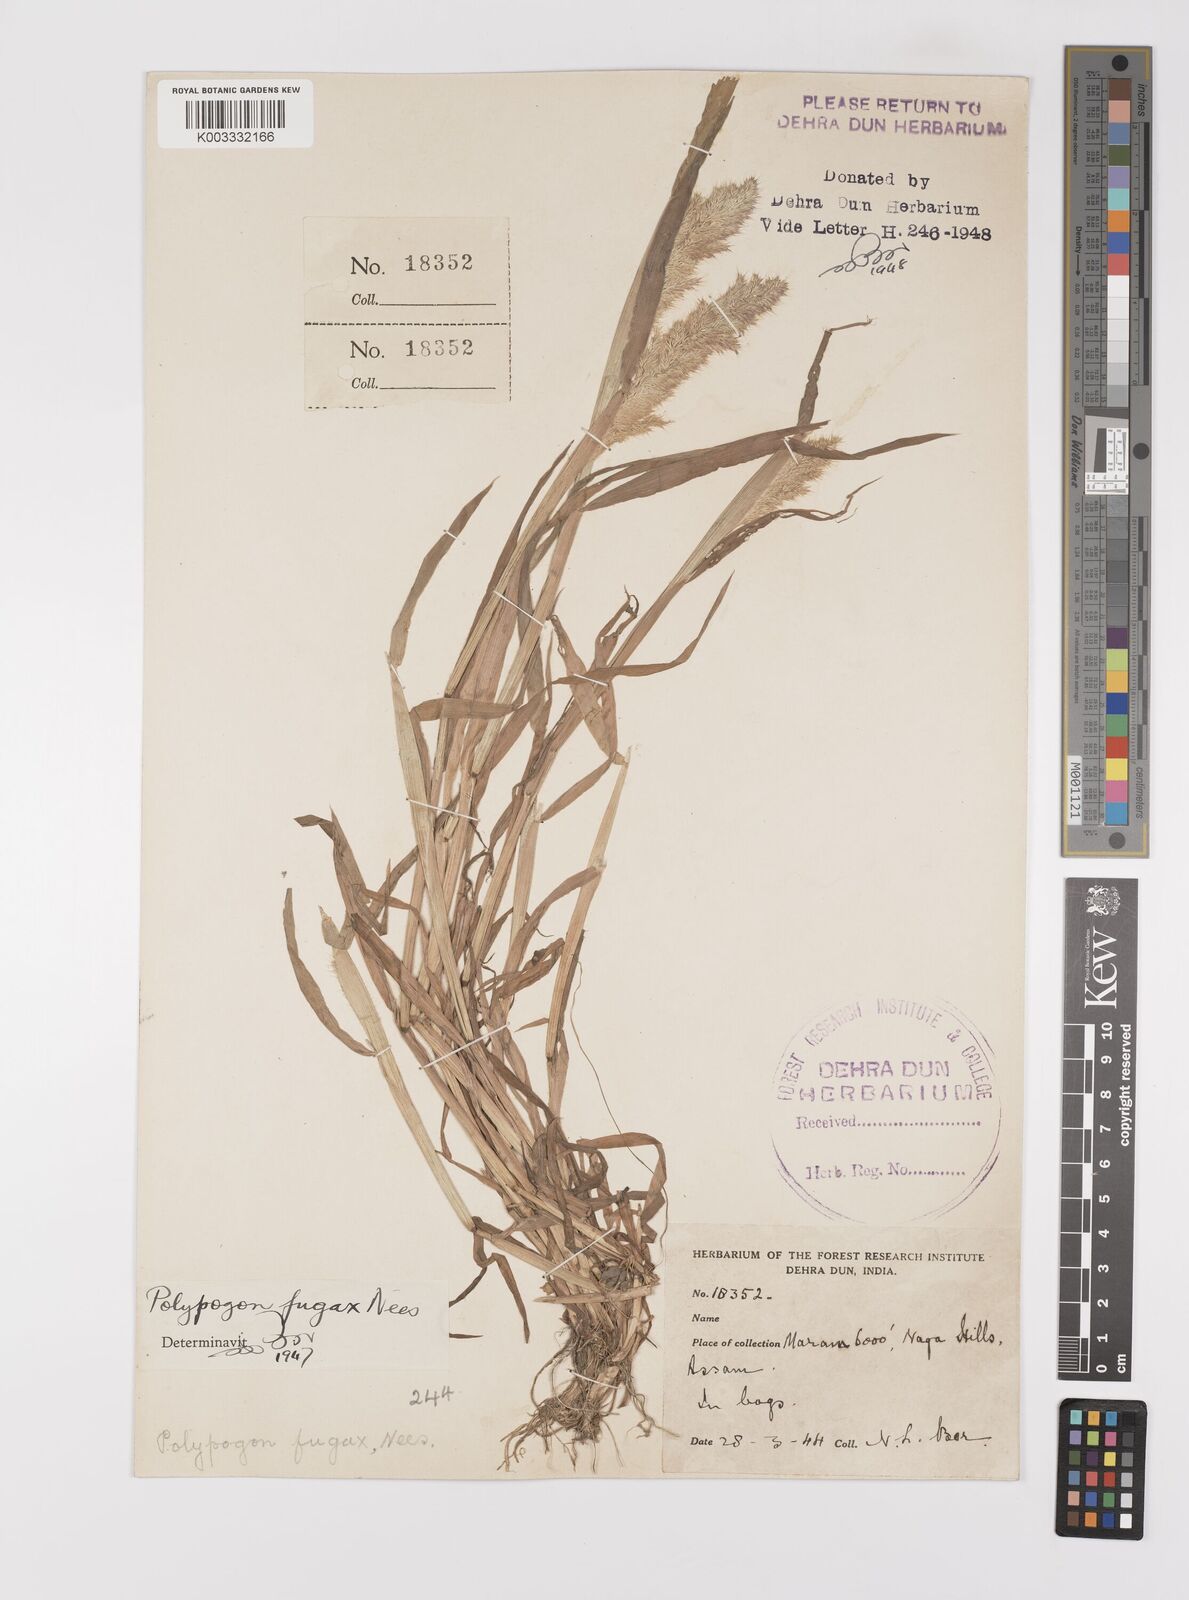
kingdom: Plantae
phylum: Tracheophyta
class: Liliopsida
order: Poales
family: Poaceae
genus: Polypogon
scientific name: Polypogon fugax
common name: Asia minor bluegrass
